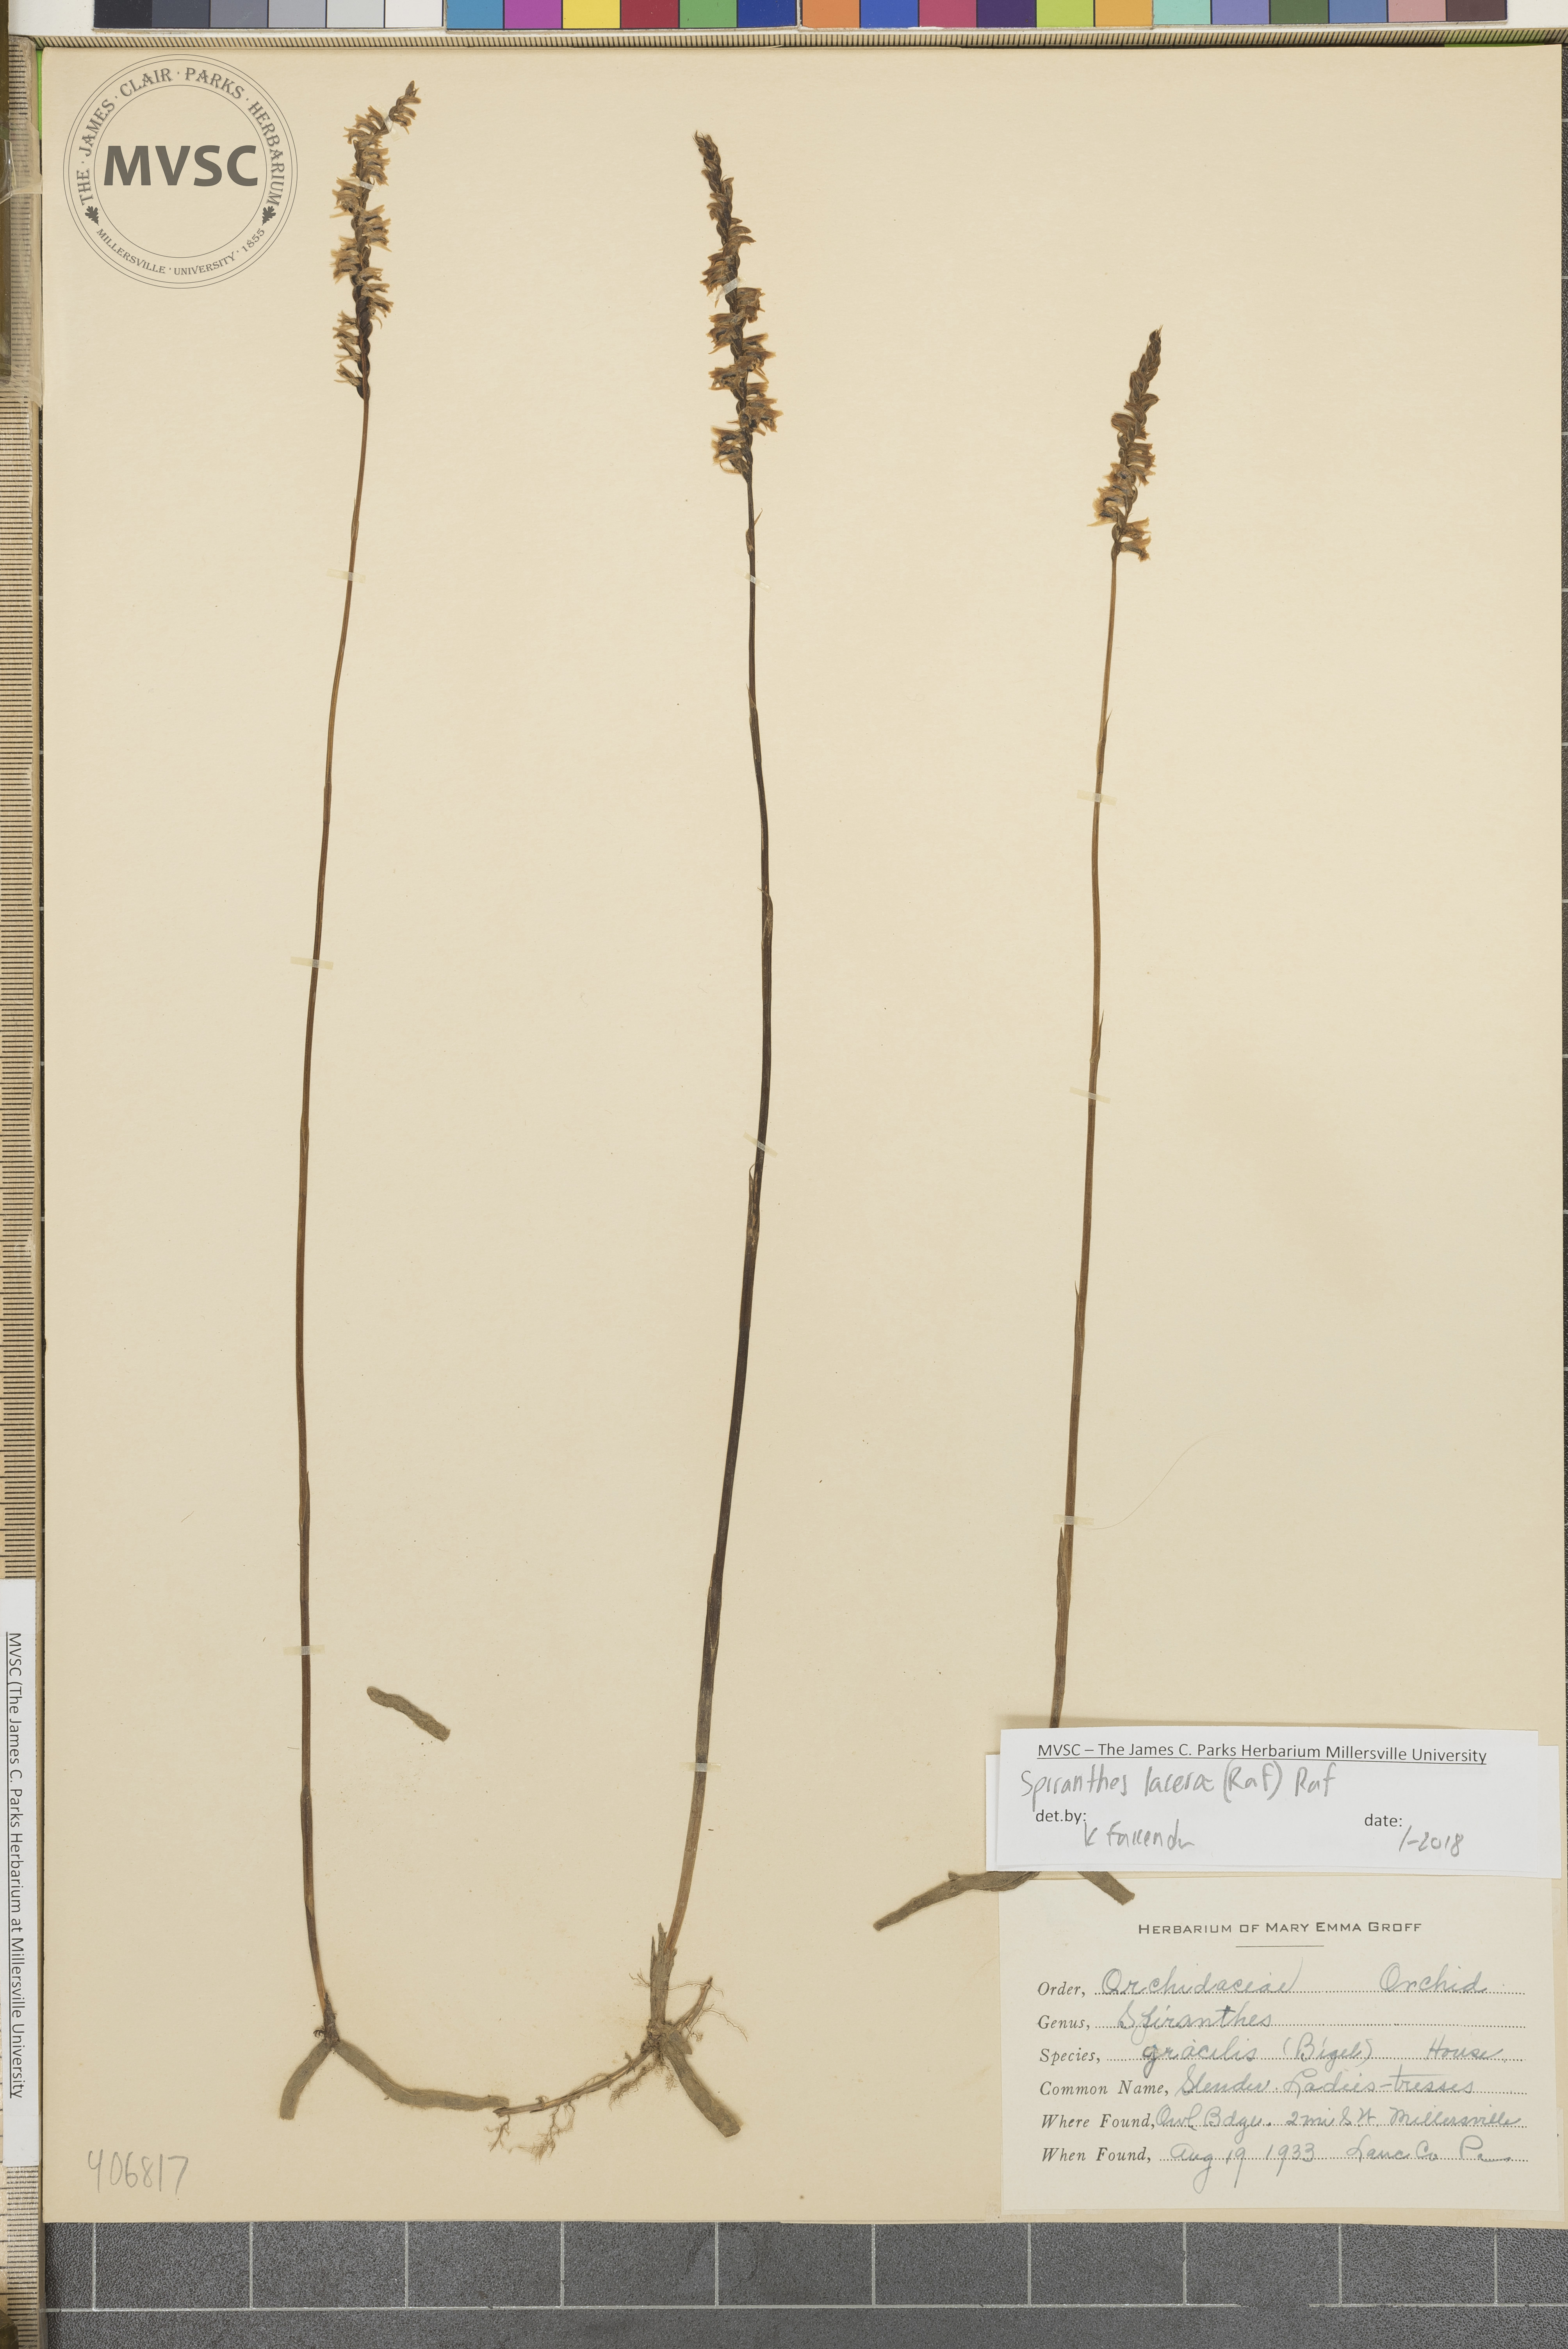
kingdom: Plantae
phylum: Tracheophyta
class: Liliopsida
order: Asparagales
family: Orchidaceae
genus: Spiranthes
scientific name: Spiranthes lacera
